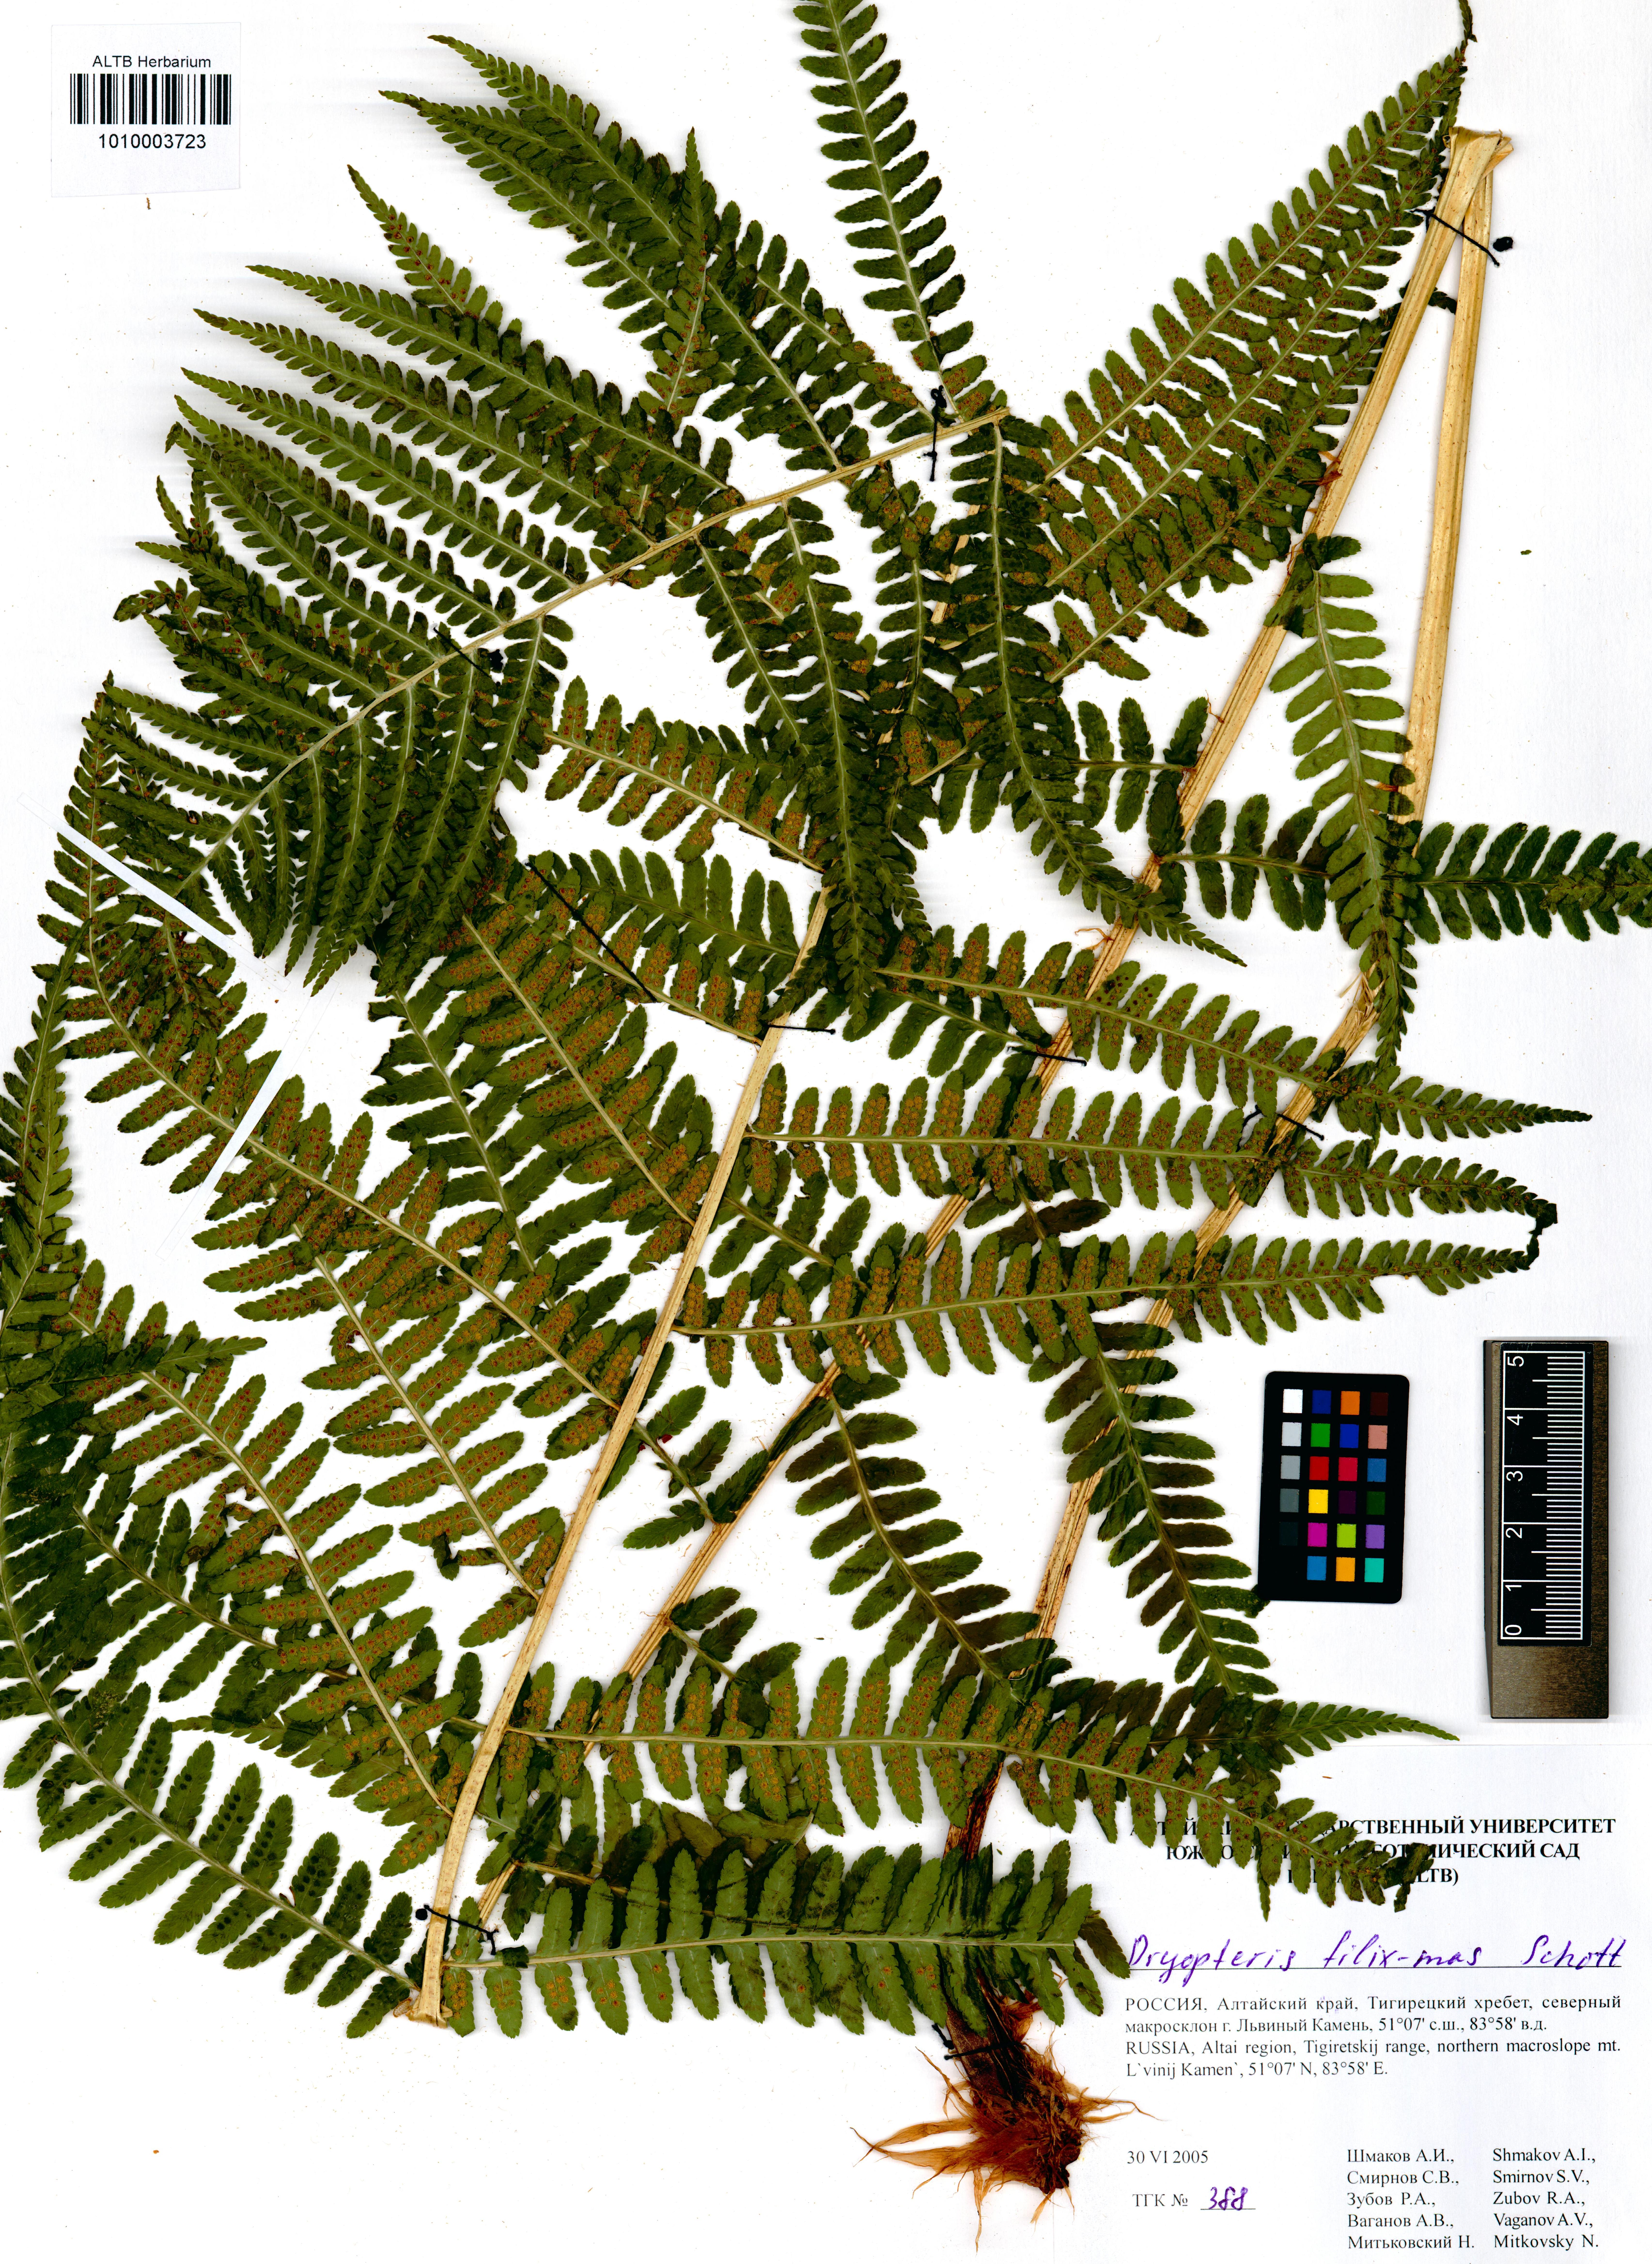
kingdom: Plantae
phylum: Tracheophyta
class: Polypodiopsida
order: Polypodiales
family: Dryopteridaceae
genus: Dryopteris
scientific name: Dryopteris filix-mas
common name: Male fern
